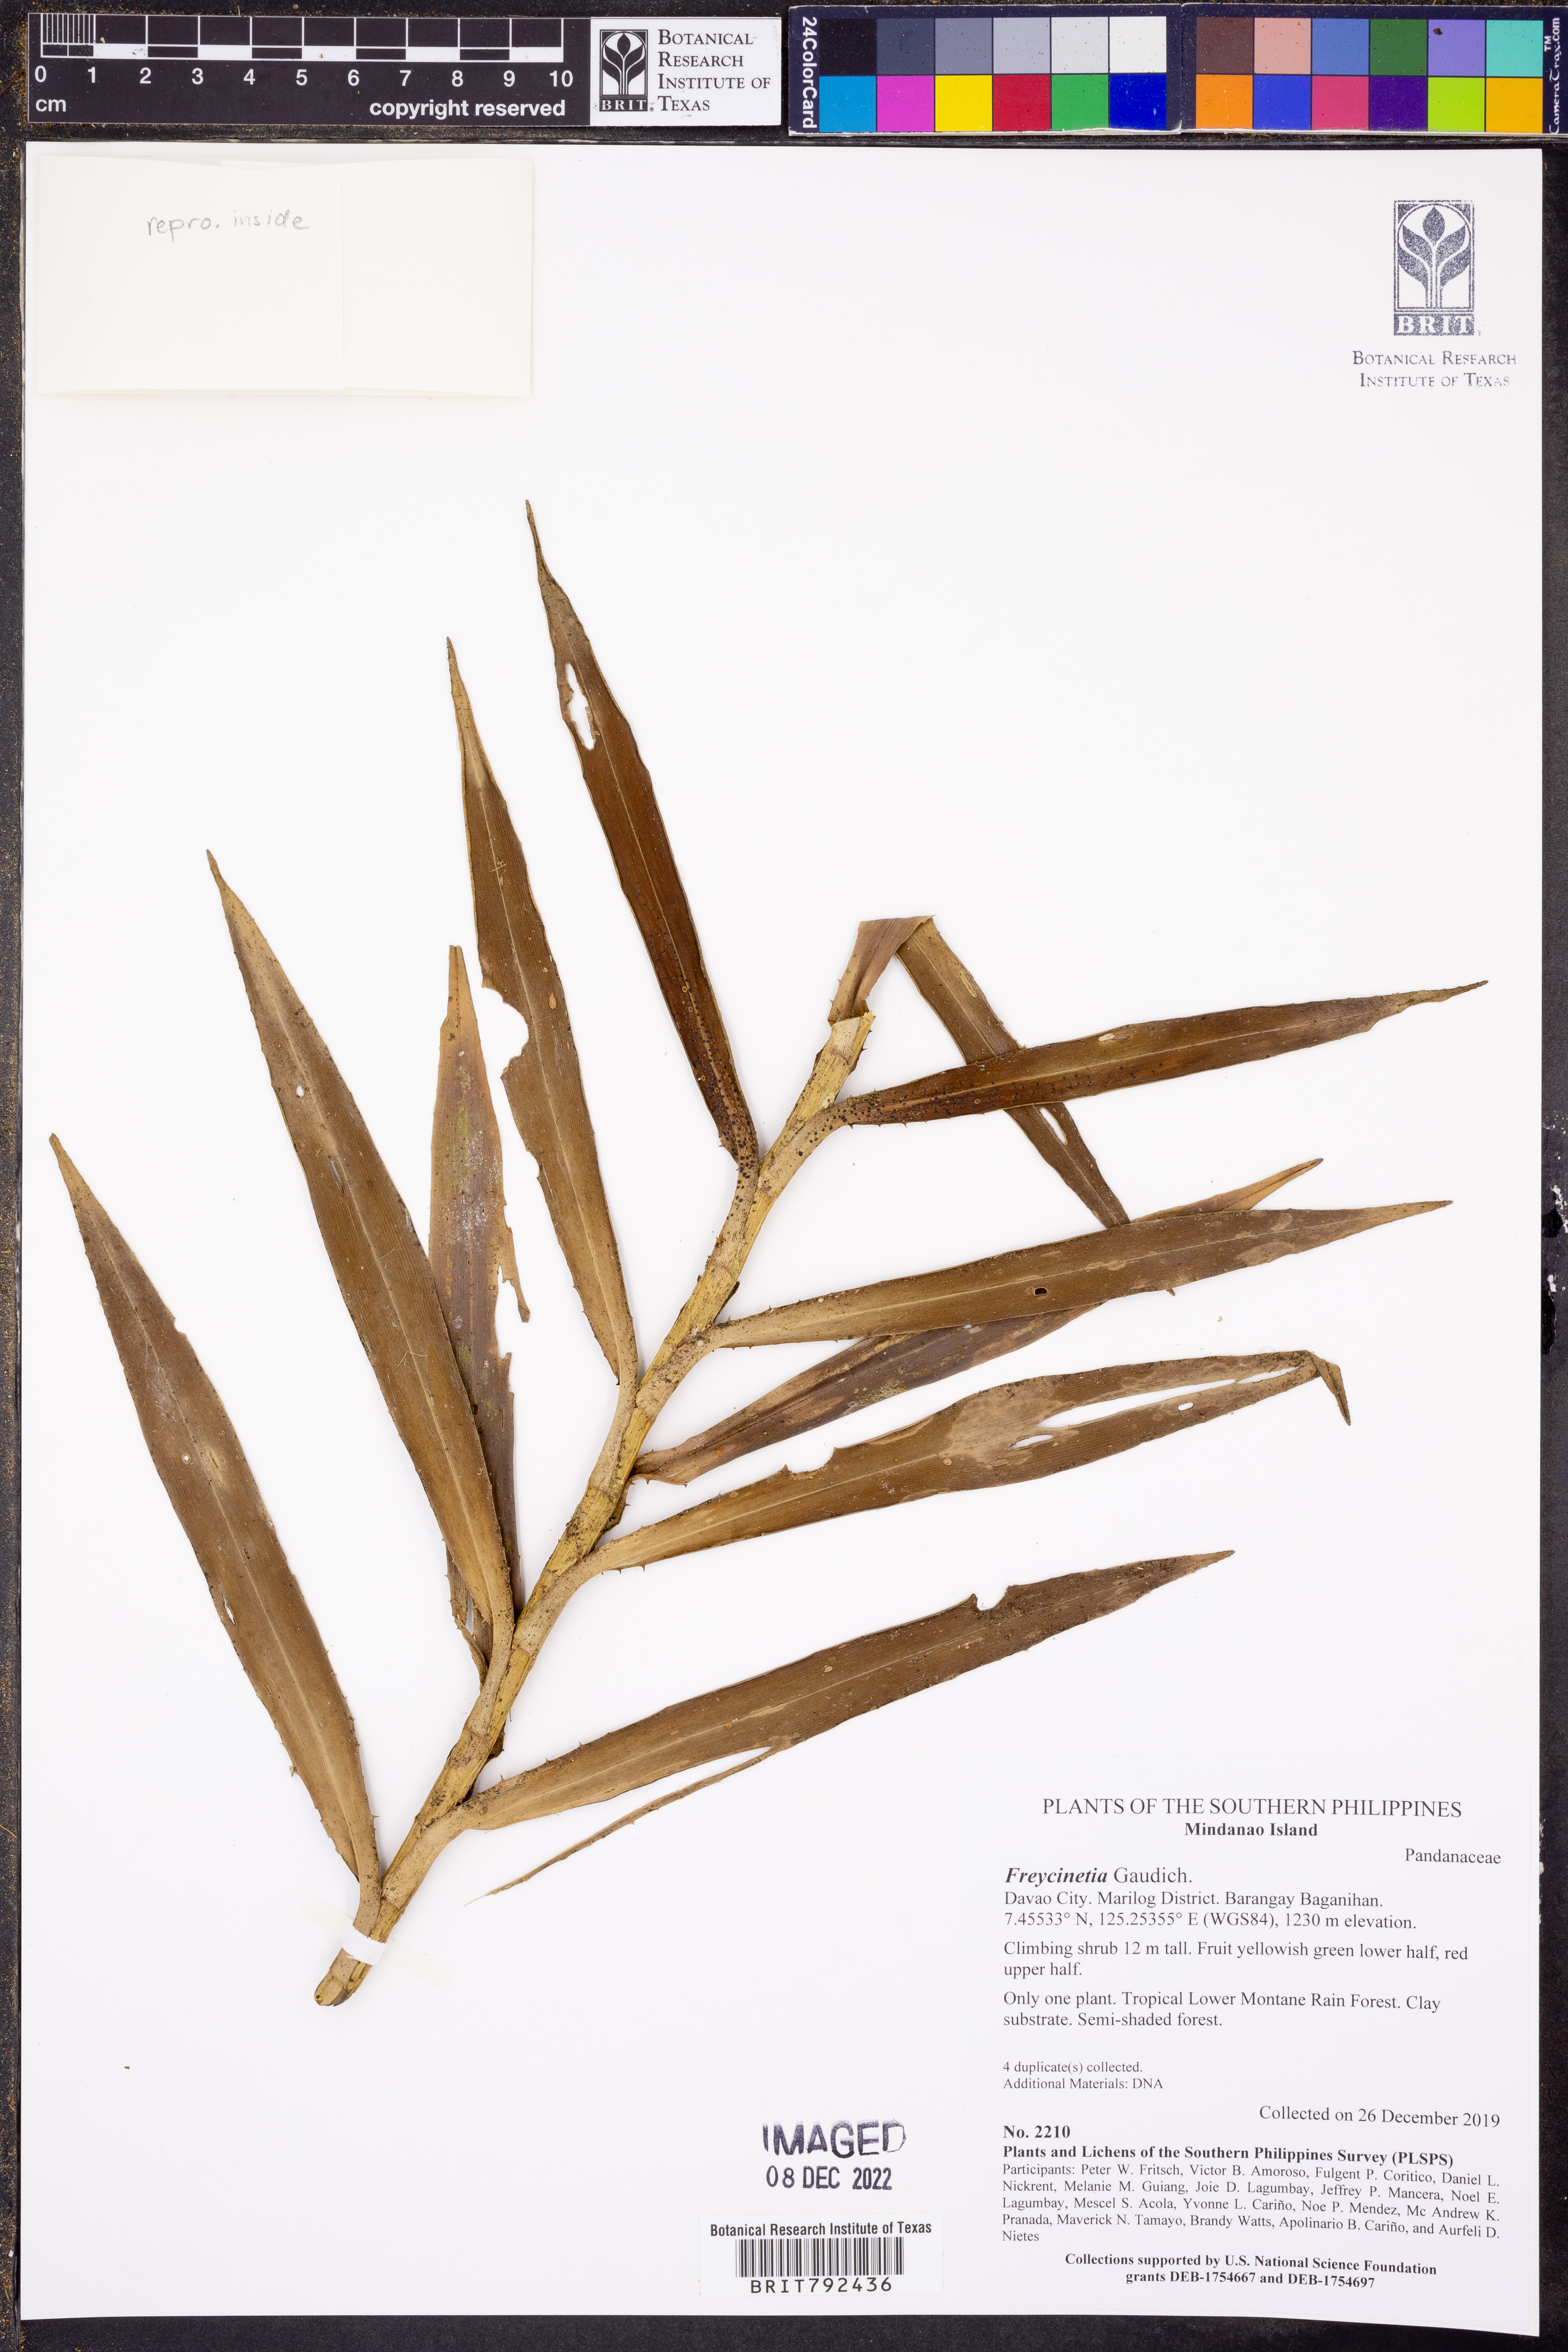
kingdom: Plantae
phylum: Tracheophyta
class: Liliopsida
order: Pandanales
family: Pandanaceae
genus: Freycinetia
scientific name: Freycinetia
